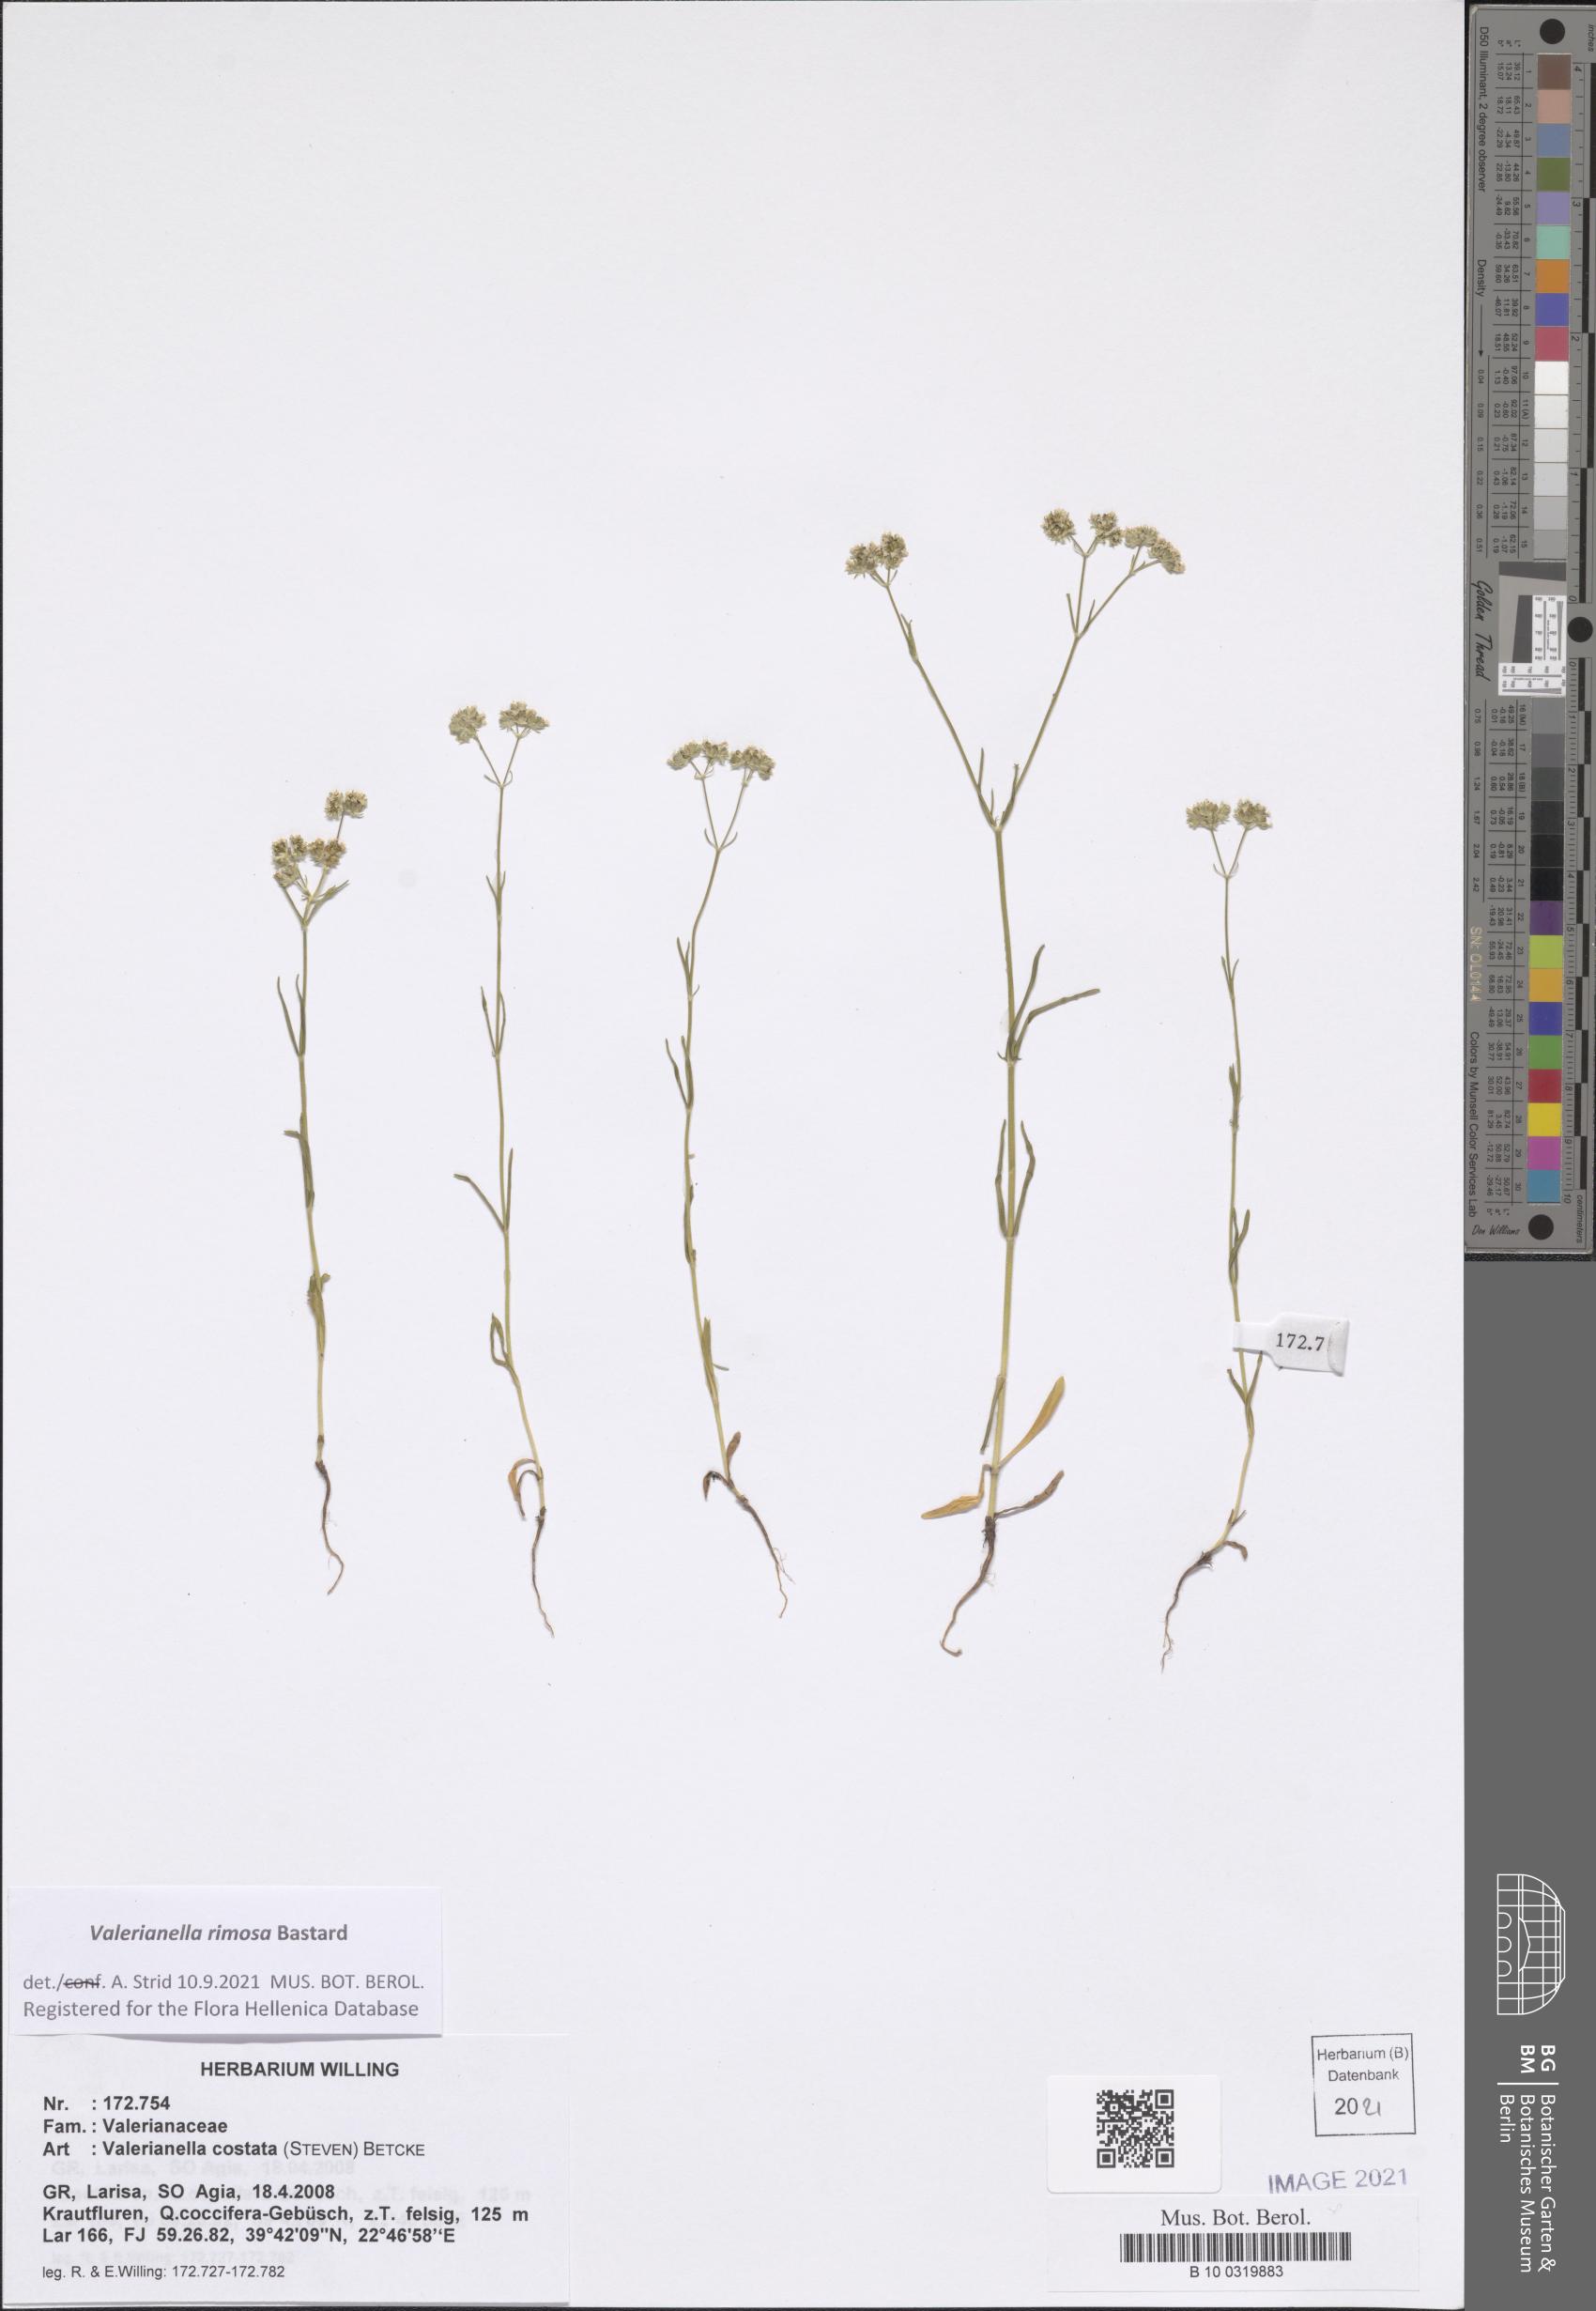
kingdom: Plantae
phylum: Tracheophyta
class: Magnoliopsida
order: Dipsacales
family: Caprifoliaceae
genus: Valerianella
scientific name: Valerianella rimosa
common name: Broad-fruited cornsalad
